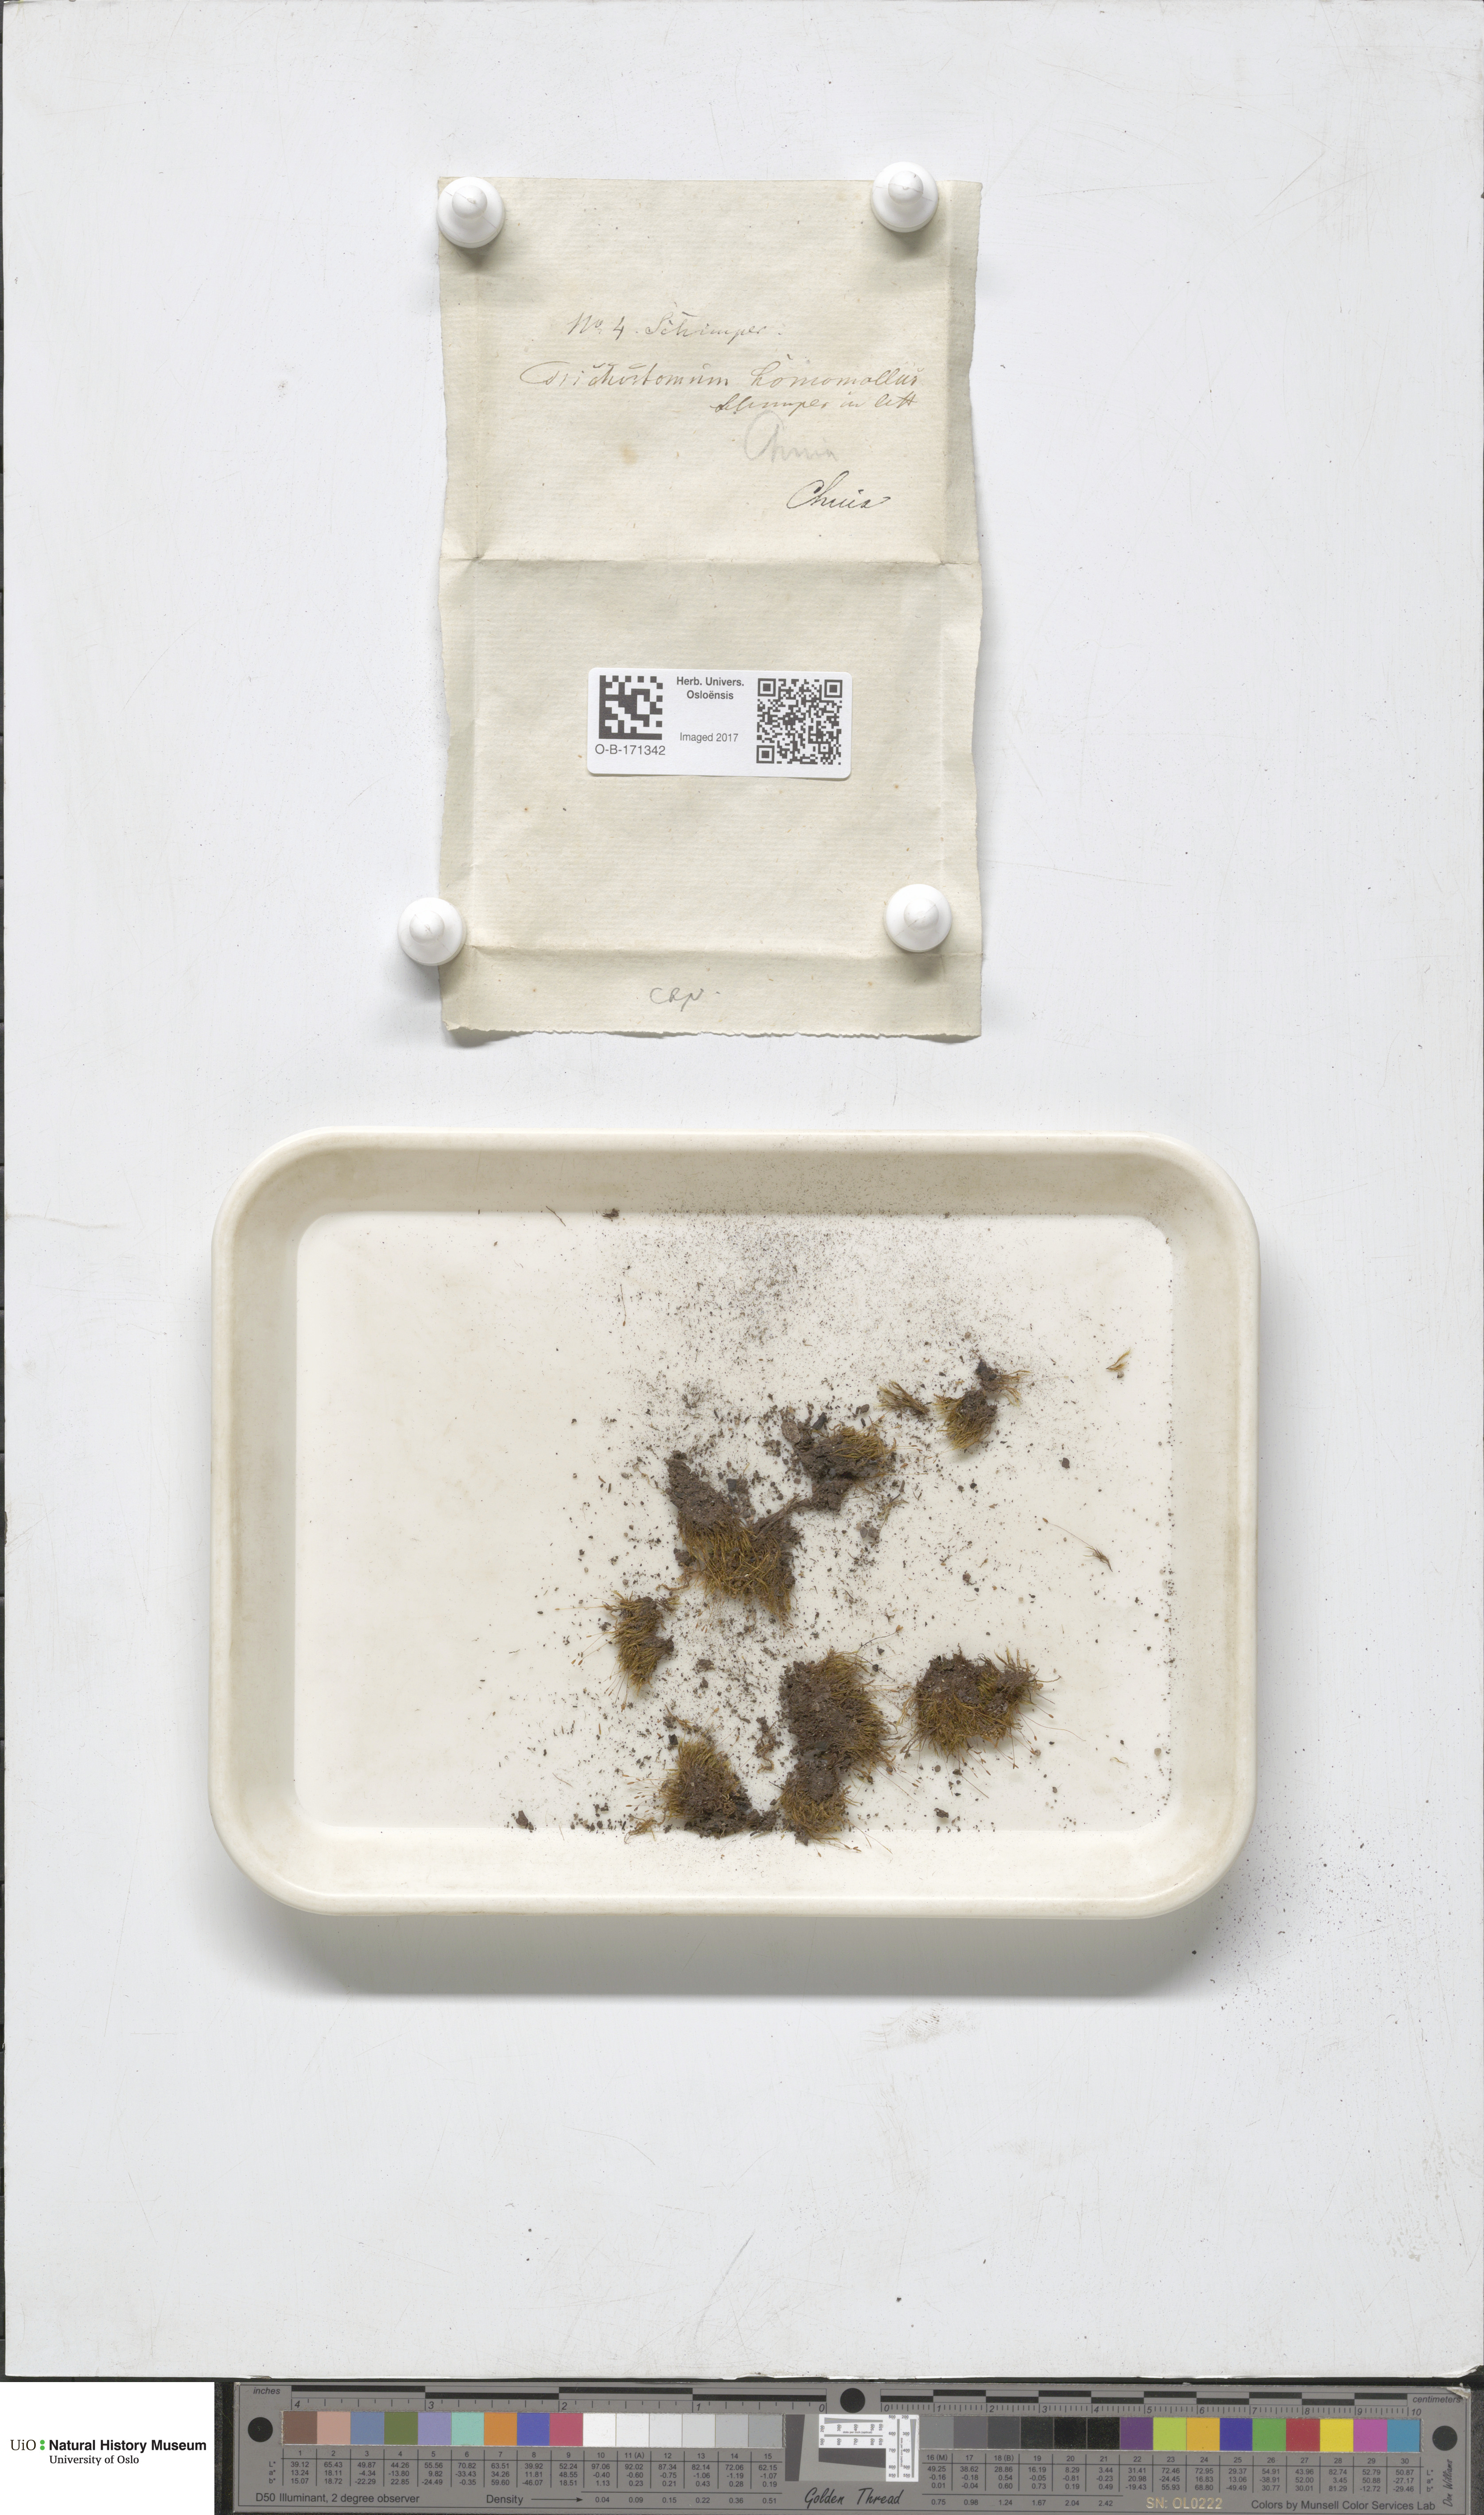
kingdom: Plantae
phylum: Bryophyta
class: Bryopsida
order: Dicranales
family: Ditrichaceae
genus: Ditrichum
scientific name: Ditrichum heteromallum
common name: Curve-leaved ditrichum
